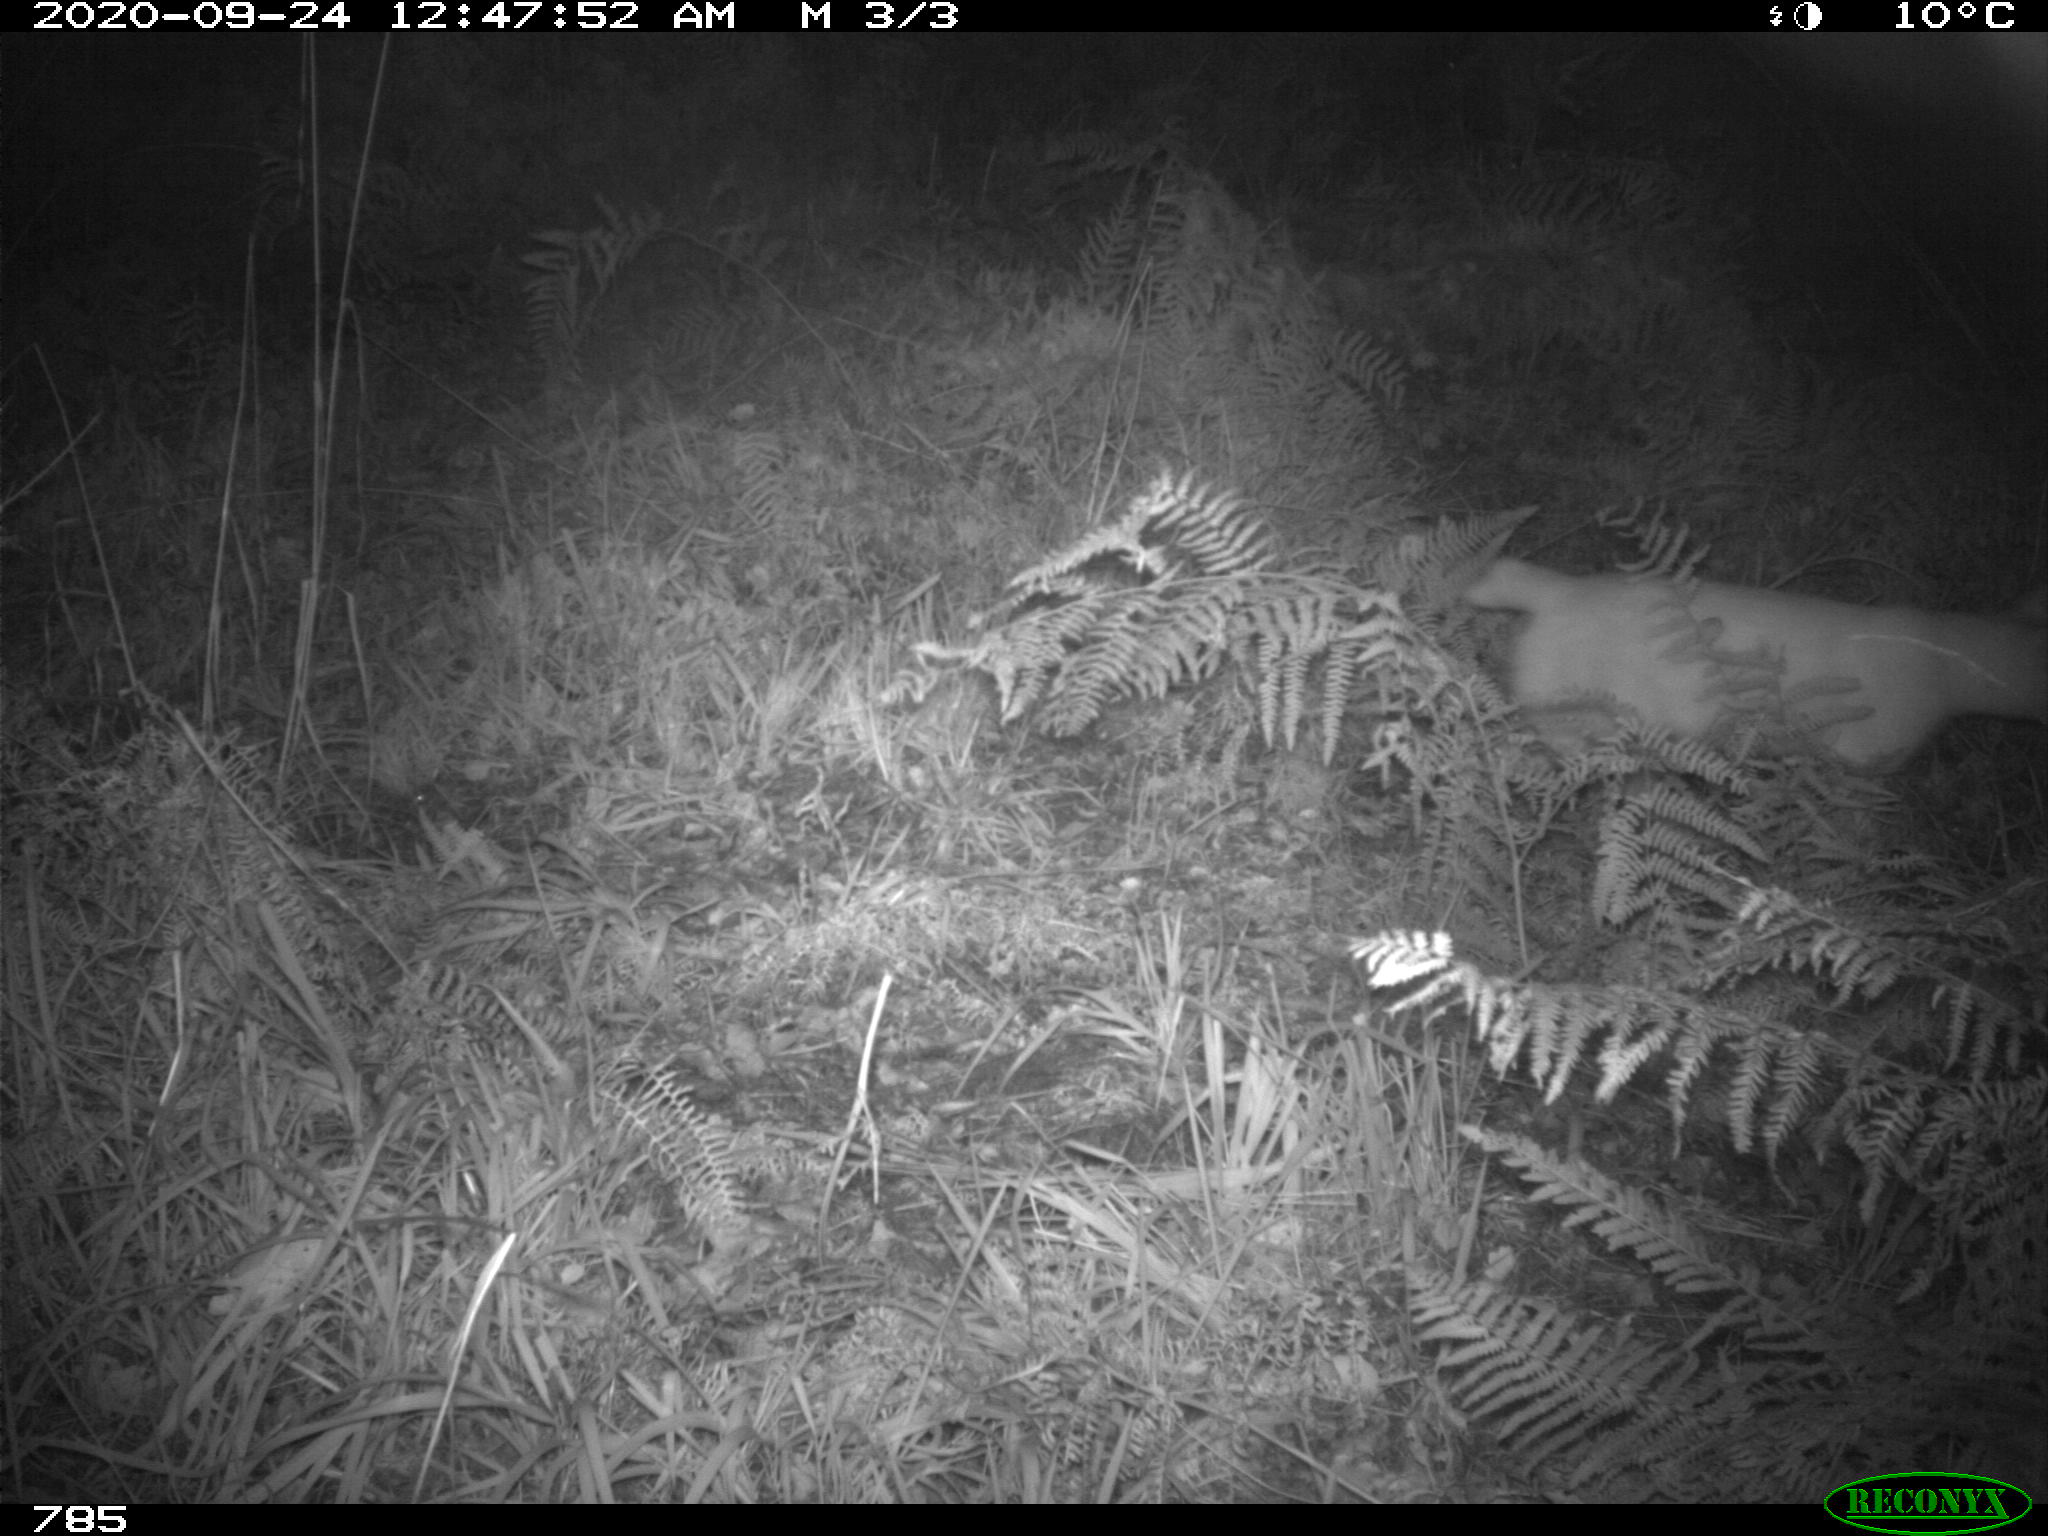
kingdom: Animalia
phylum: Chordata
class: Mammalia
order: Carnivora
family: Felidae
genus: Felis
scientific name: Felis catus
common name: Domestic cat
